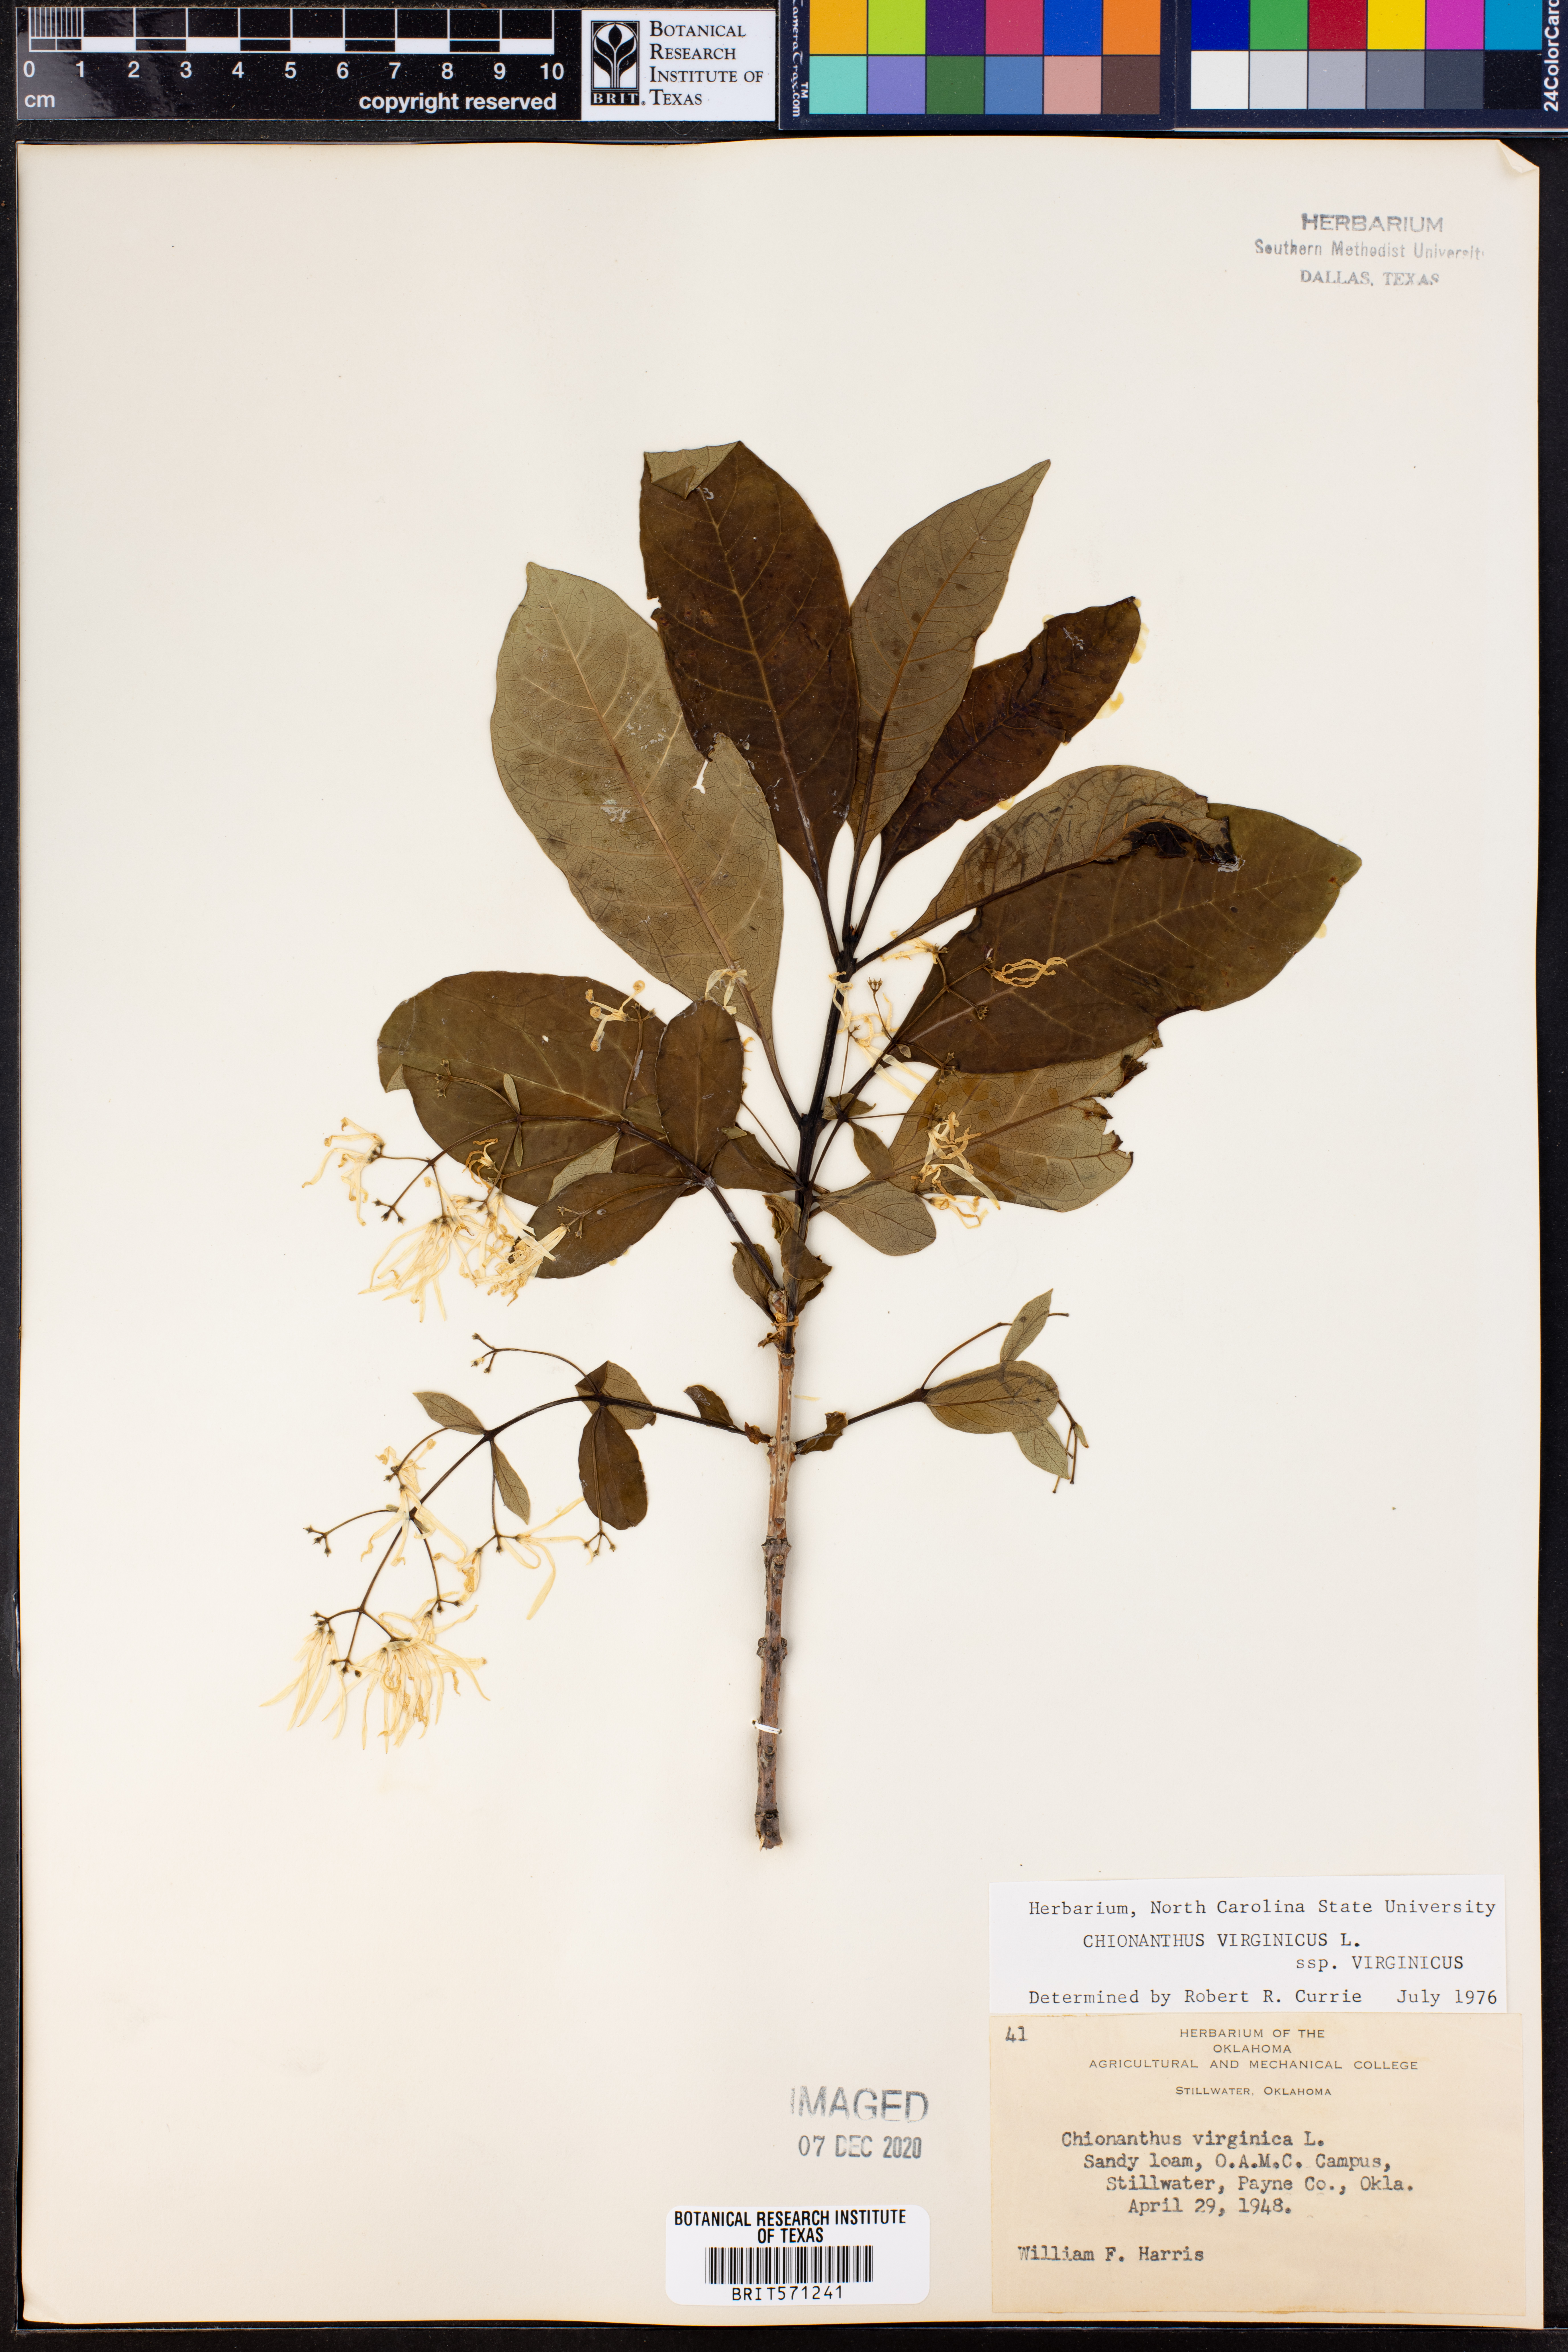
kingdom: Plantae
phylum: Tracheophyta
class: Magnoliopsida
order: Lamiales
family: Oleaceae
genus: Chionanthus
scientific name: Chionanthus virginicus
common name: American fringetree
